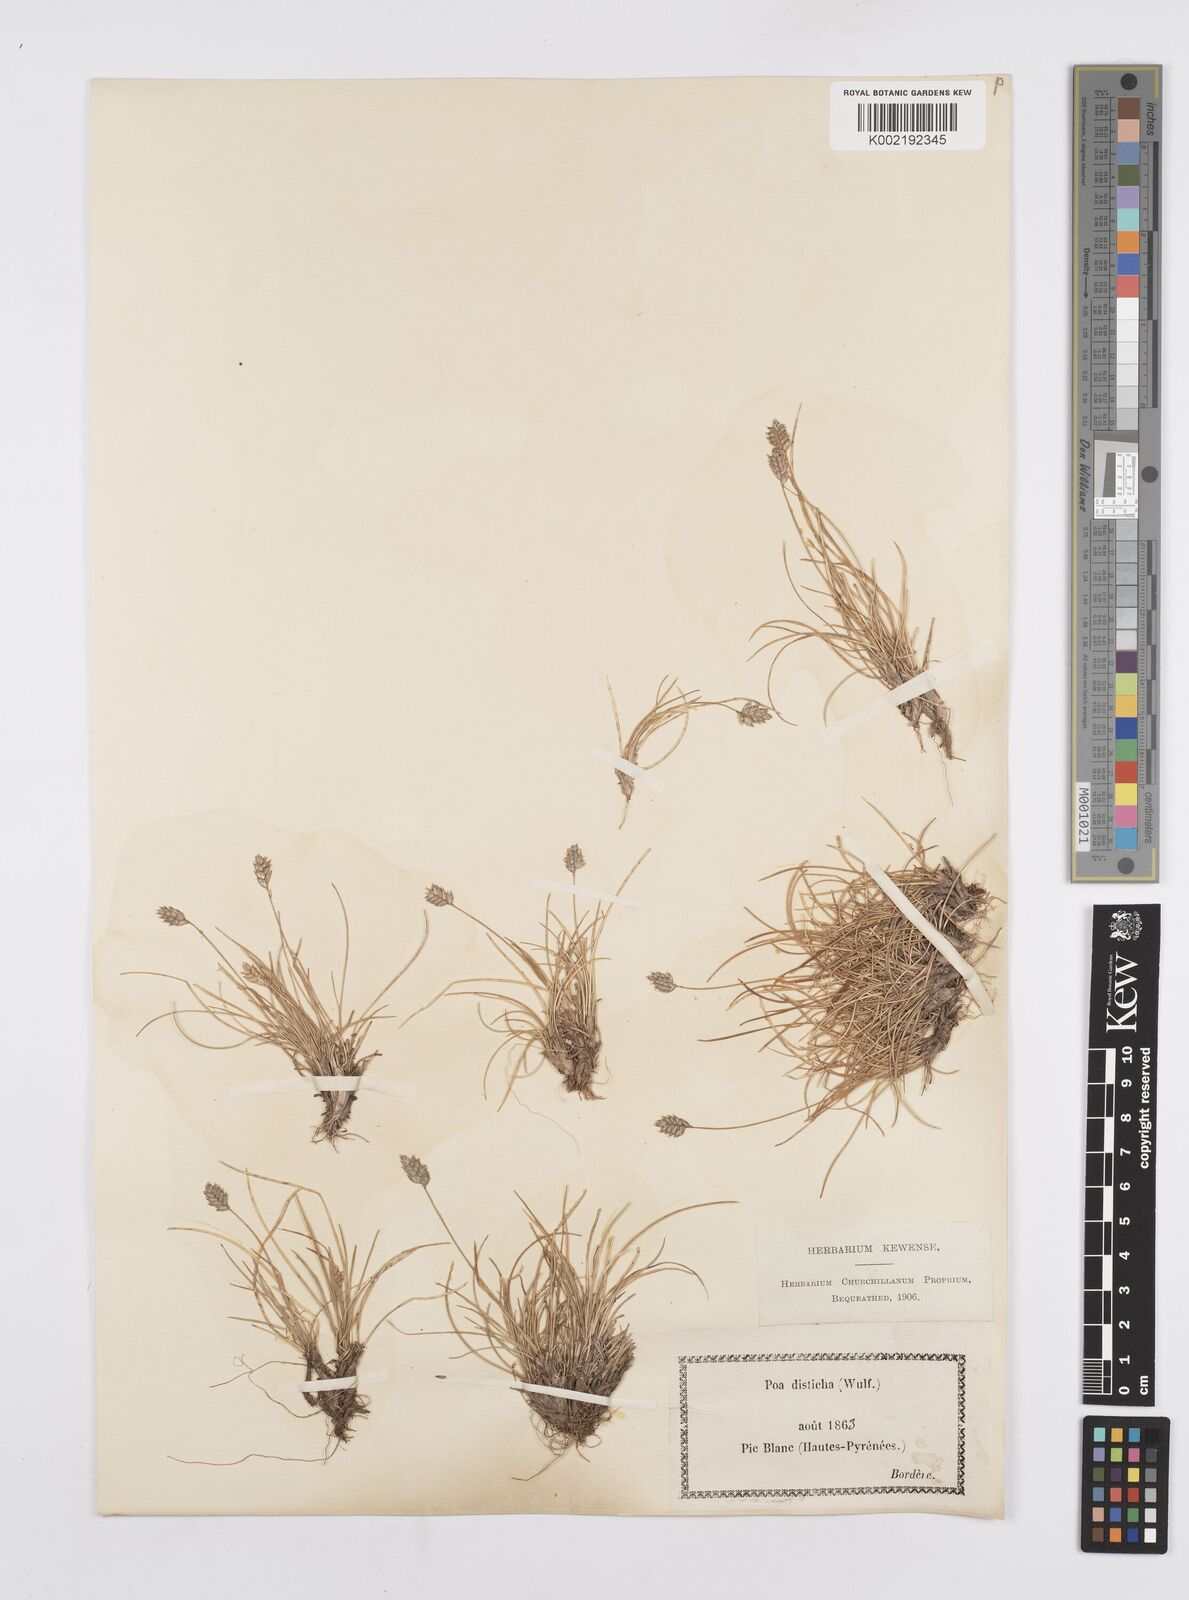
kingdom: Plantae
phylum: Tracheophyta
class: Liliopsida
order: Poales
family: Poaceae
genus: Oreochloa
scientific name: Oreochloa elegans
